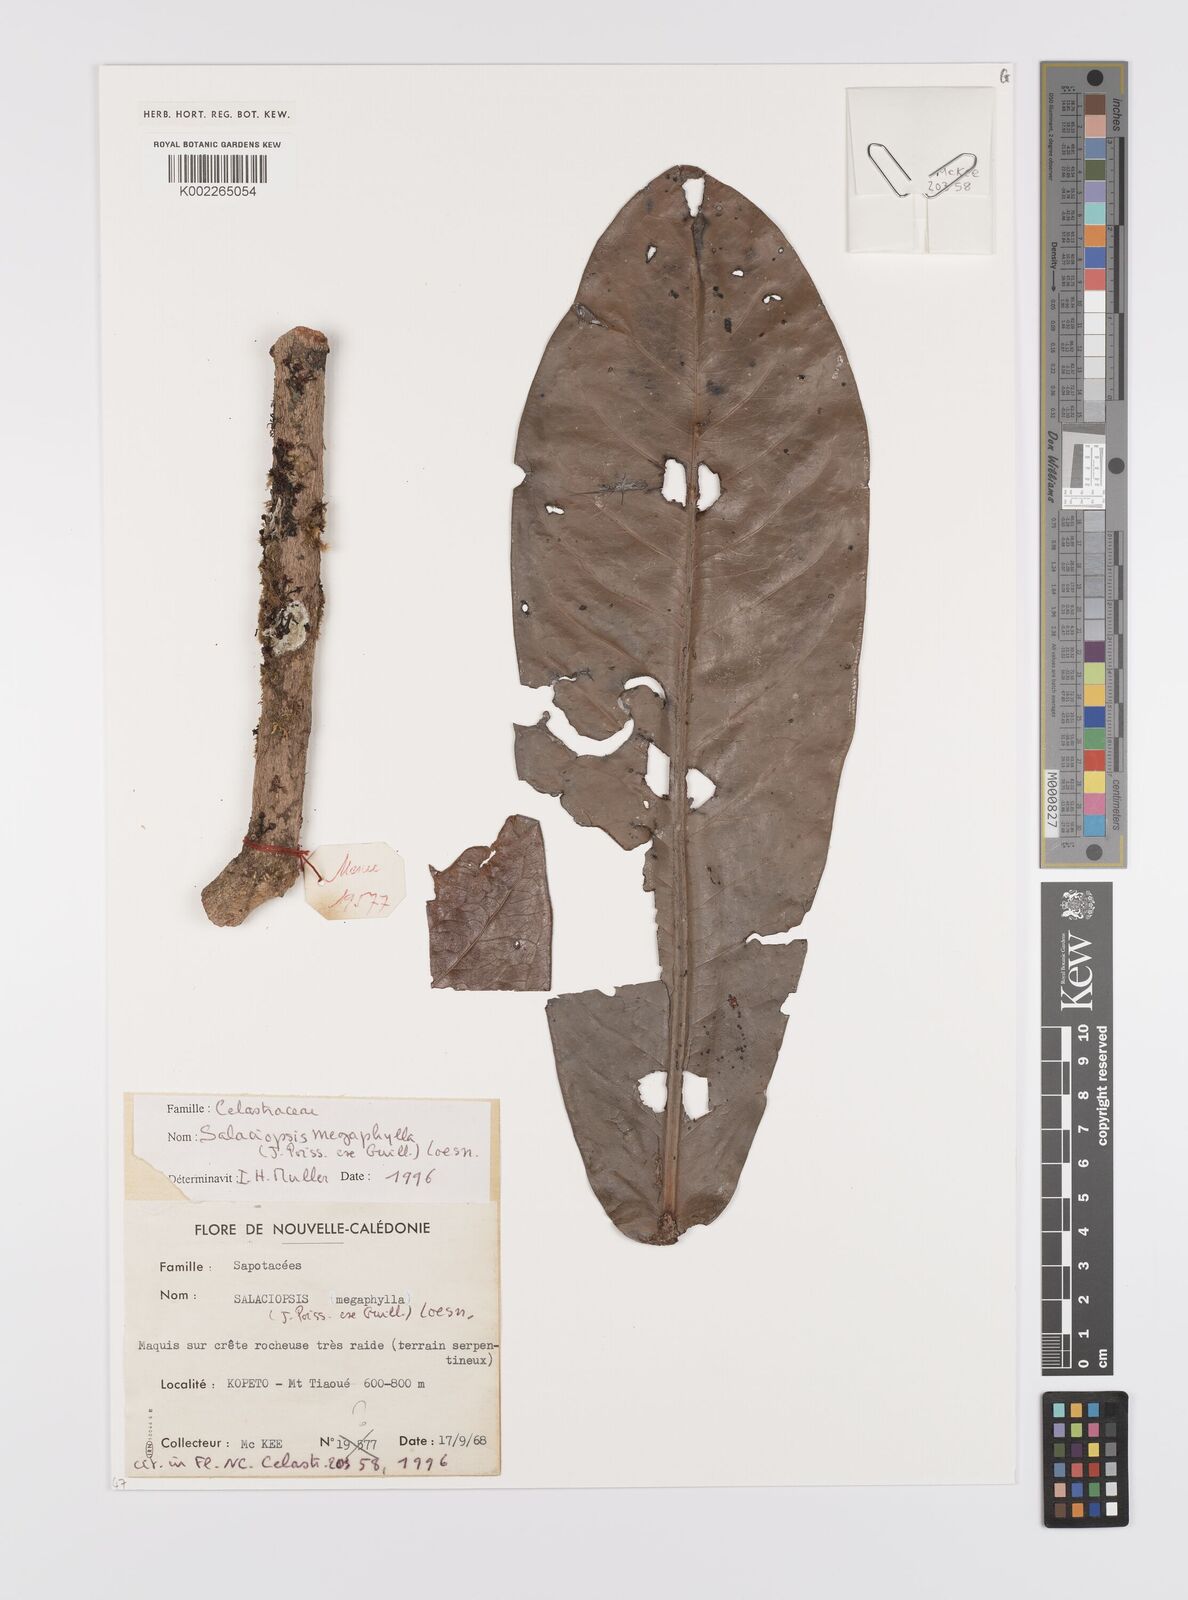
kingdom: Plantae
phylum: Tracheophyta
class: Magnoliopsida
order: Celastrales
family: Celastraceae
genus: Salaciopsis
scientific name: Salaciopsis megaphylla
